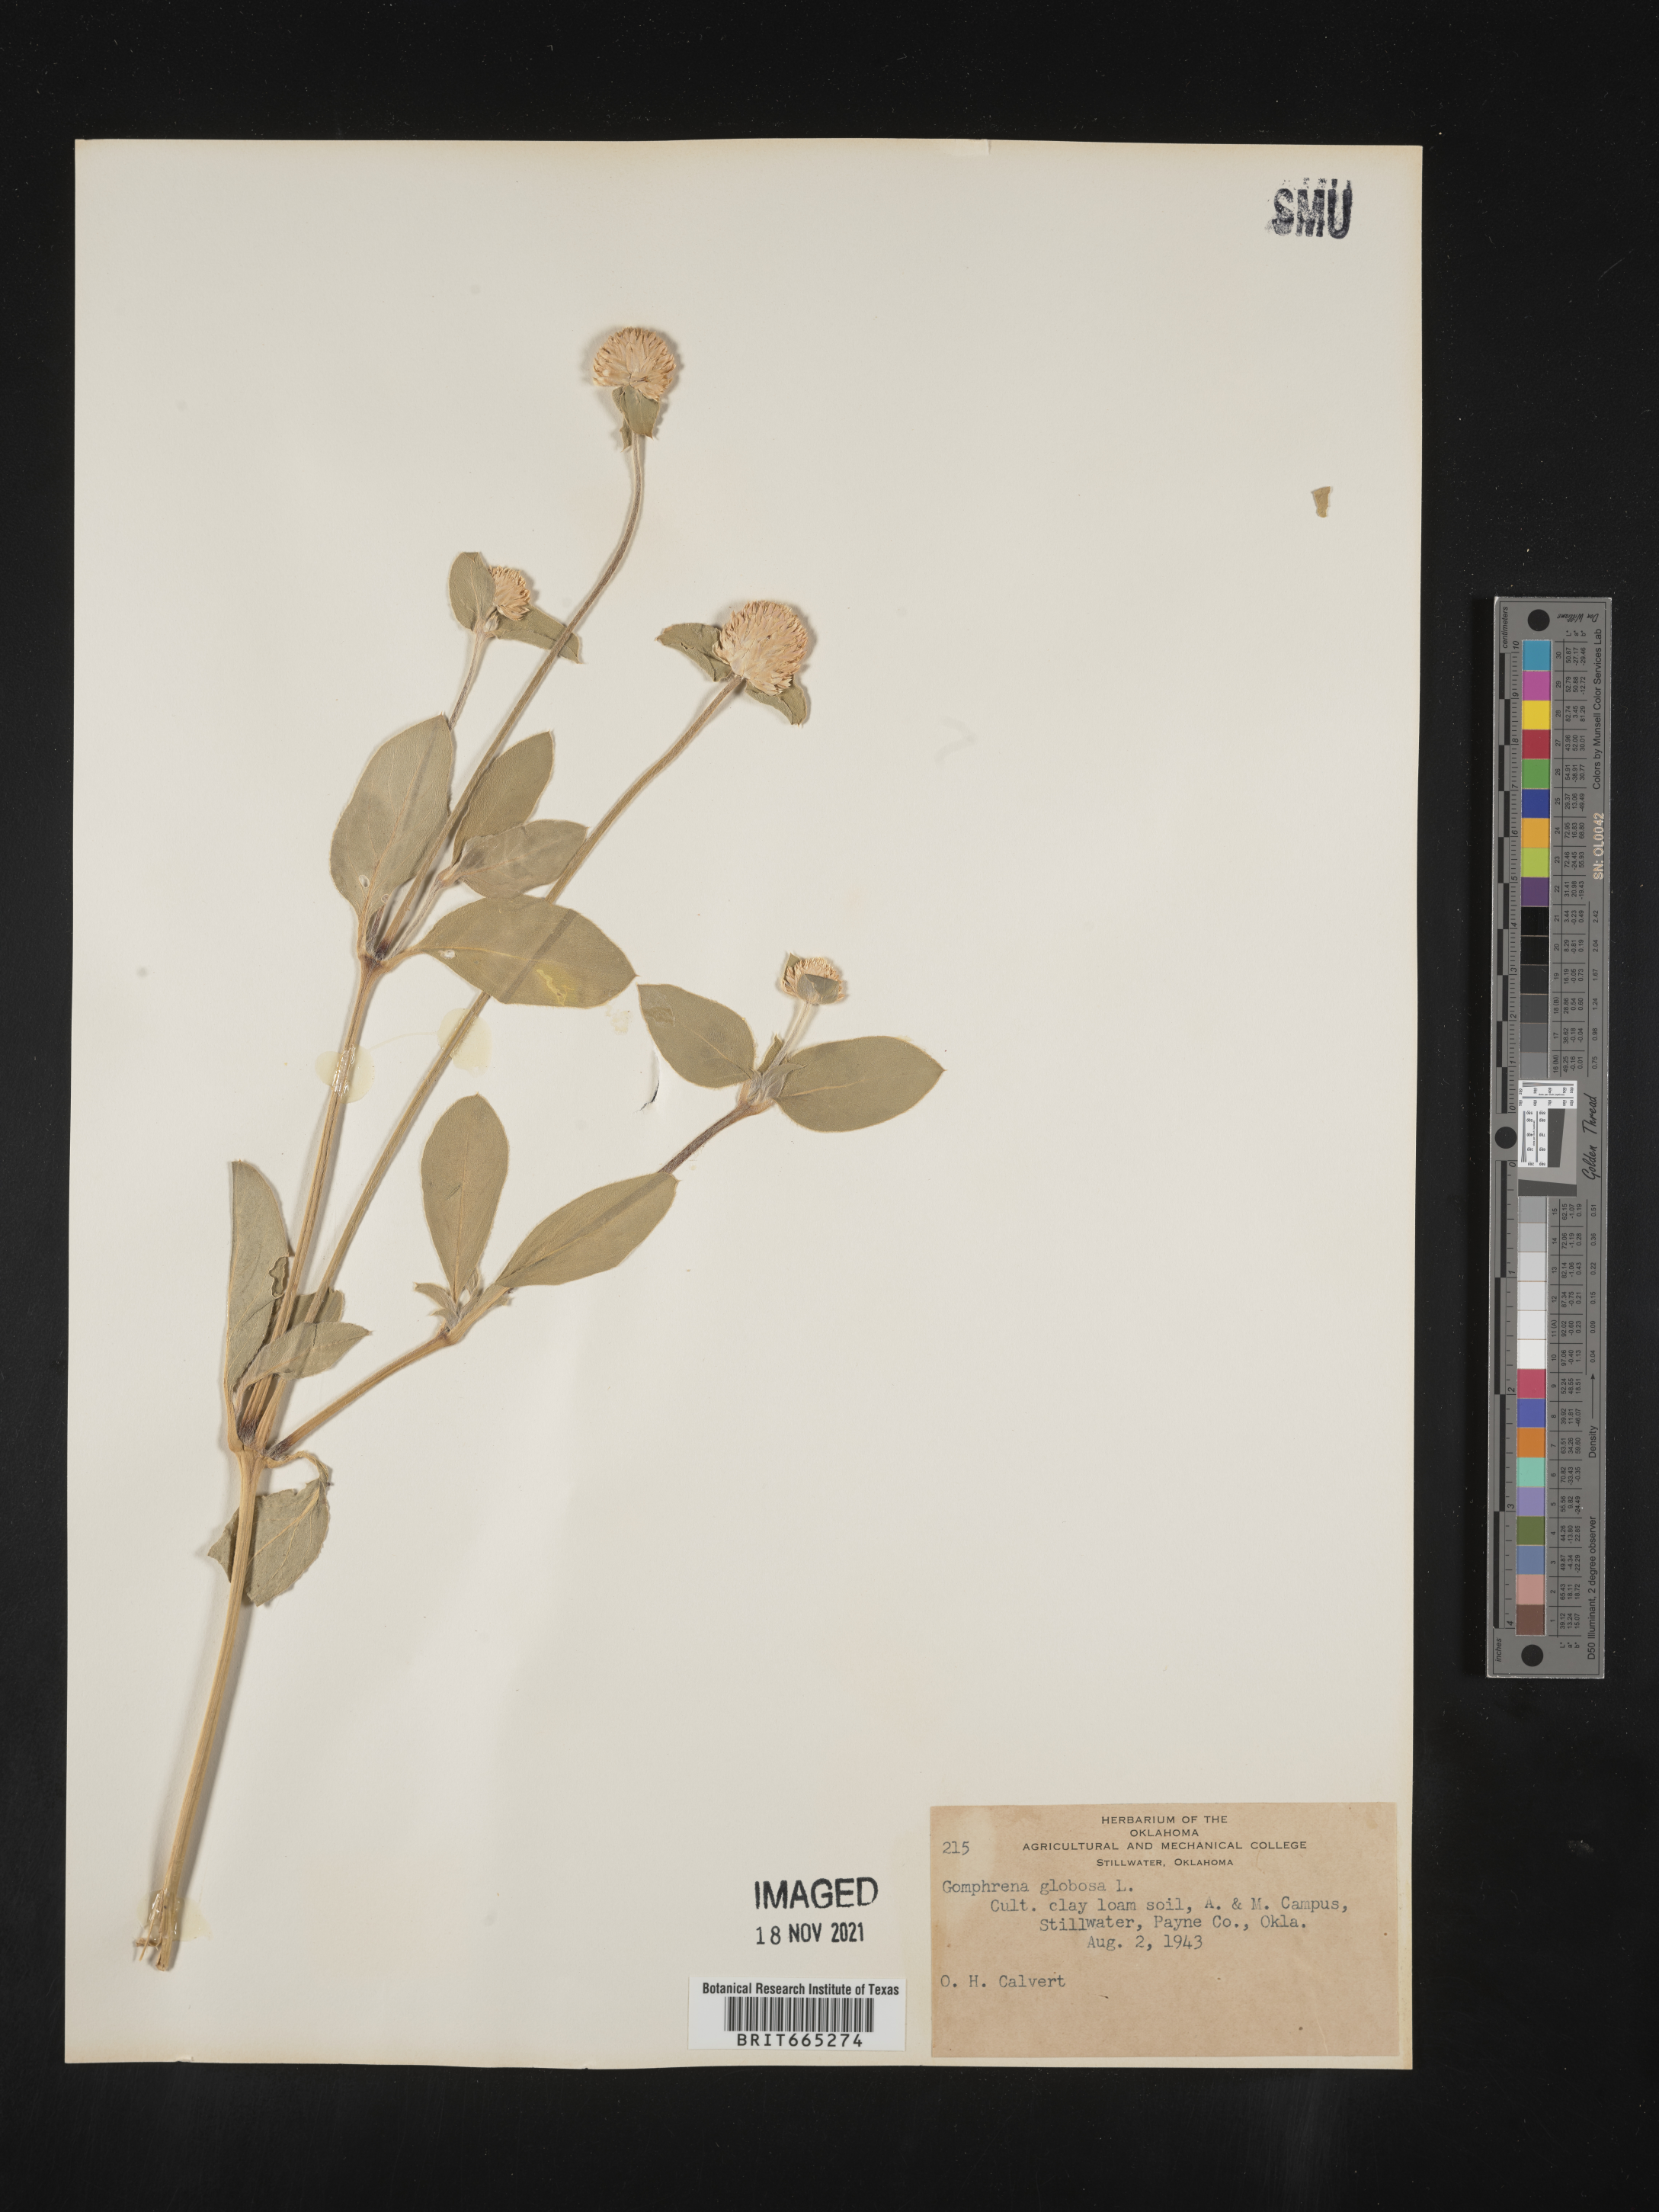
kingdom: Plantae
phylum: Tracheophyta
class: Magnoliopsida
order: Caryophyllales
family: Amaranthaceae
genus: Gomphrena
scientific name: Gomphrena
